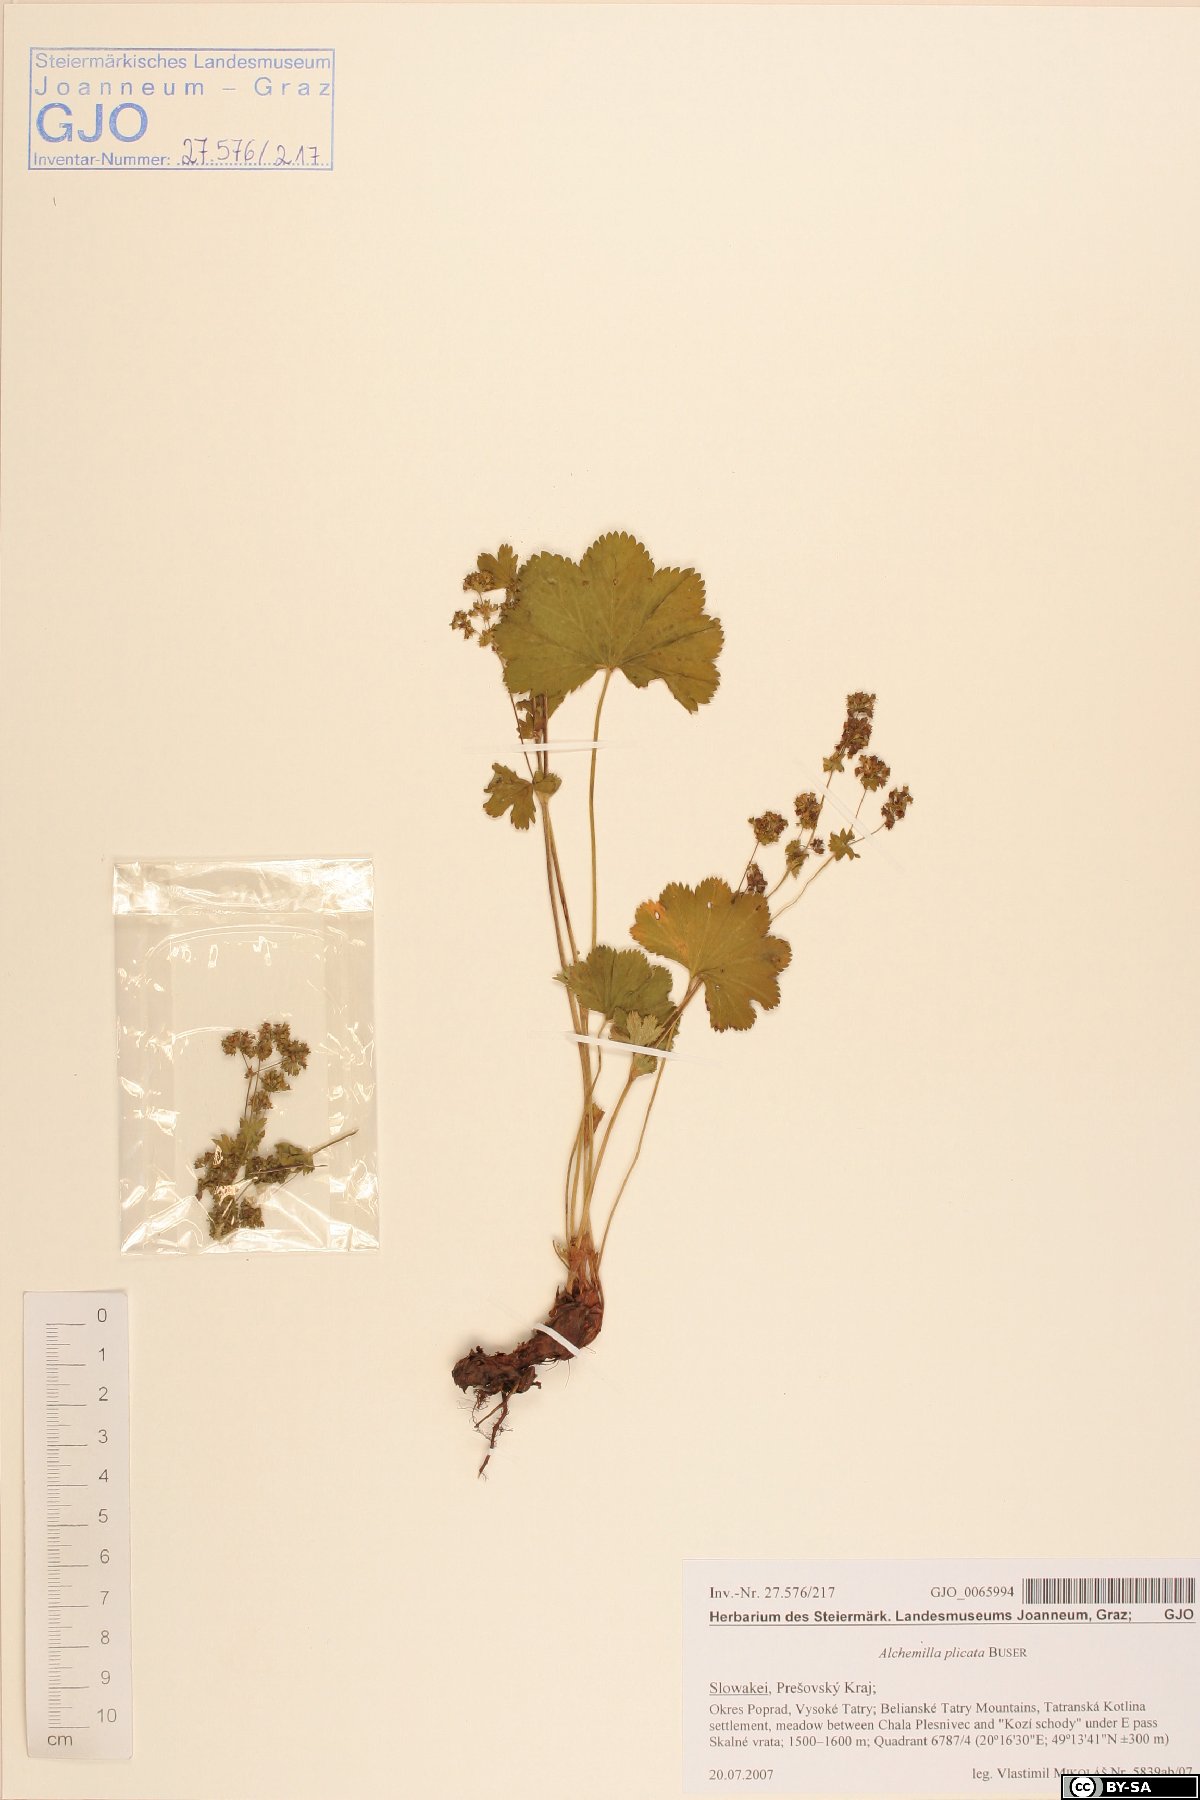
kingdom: Plantae
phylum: Tracheophyta
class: Magnoliopsida
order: Rosales
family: Rosaceae
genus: Alchemilla
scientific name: Alchemilla plicata
